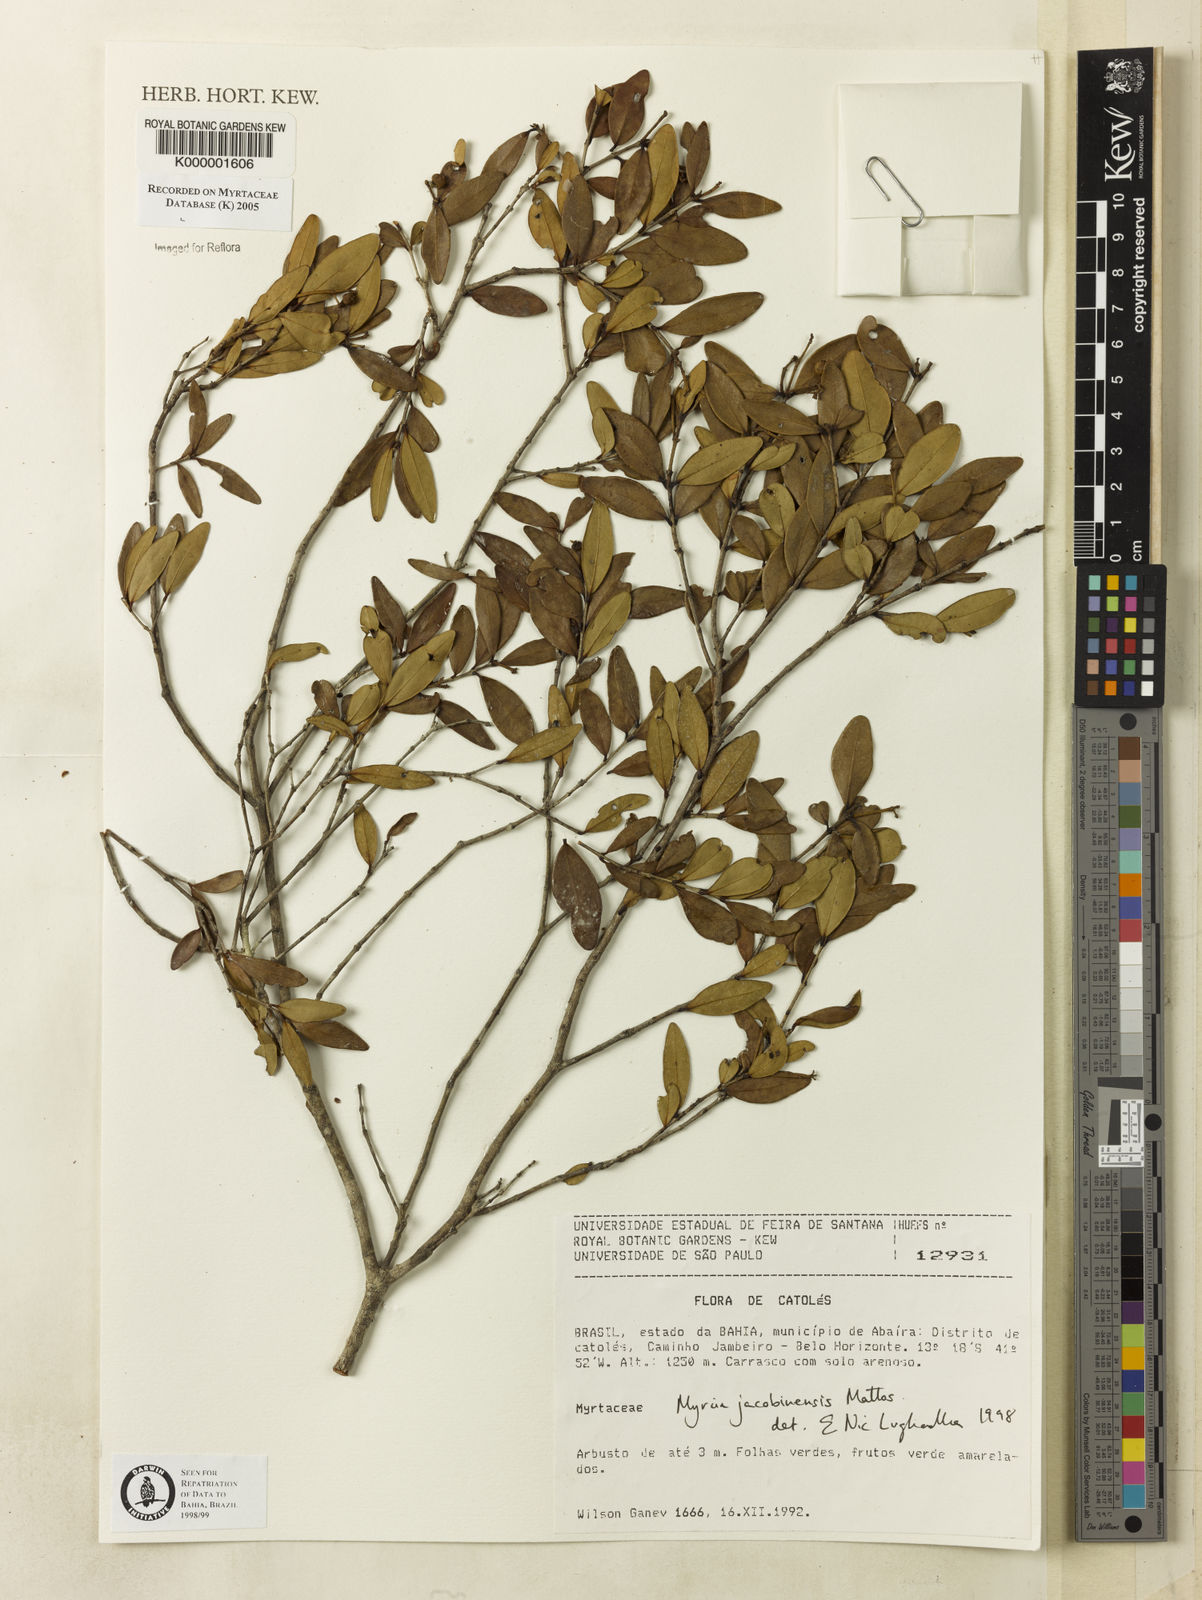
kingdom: Plantae
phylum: Tracheophyta
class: Magnoliopsida
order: Myrtales
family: Myrtaceae
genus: Myrcia
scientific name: Myrcia jacobinensis
